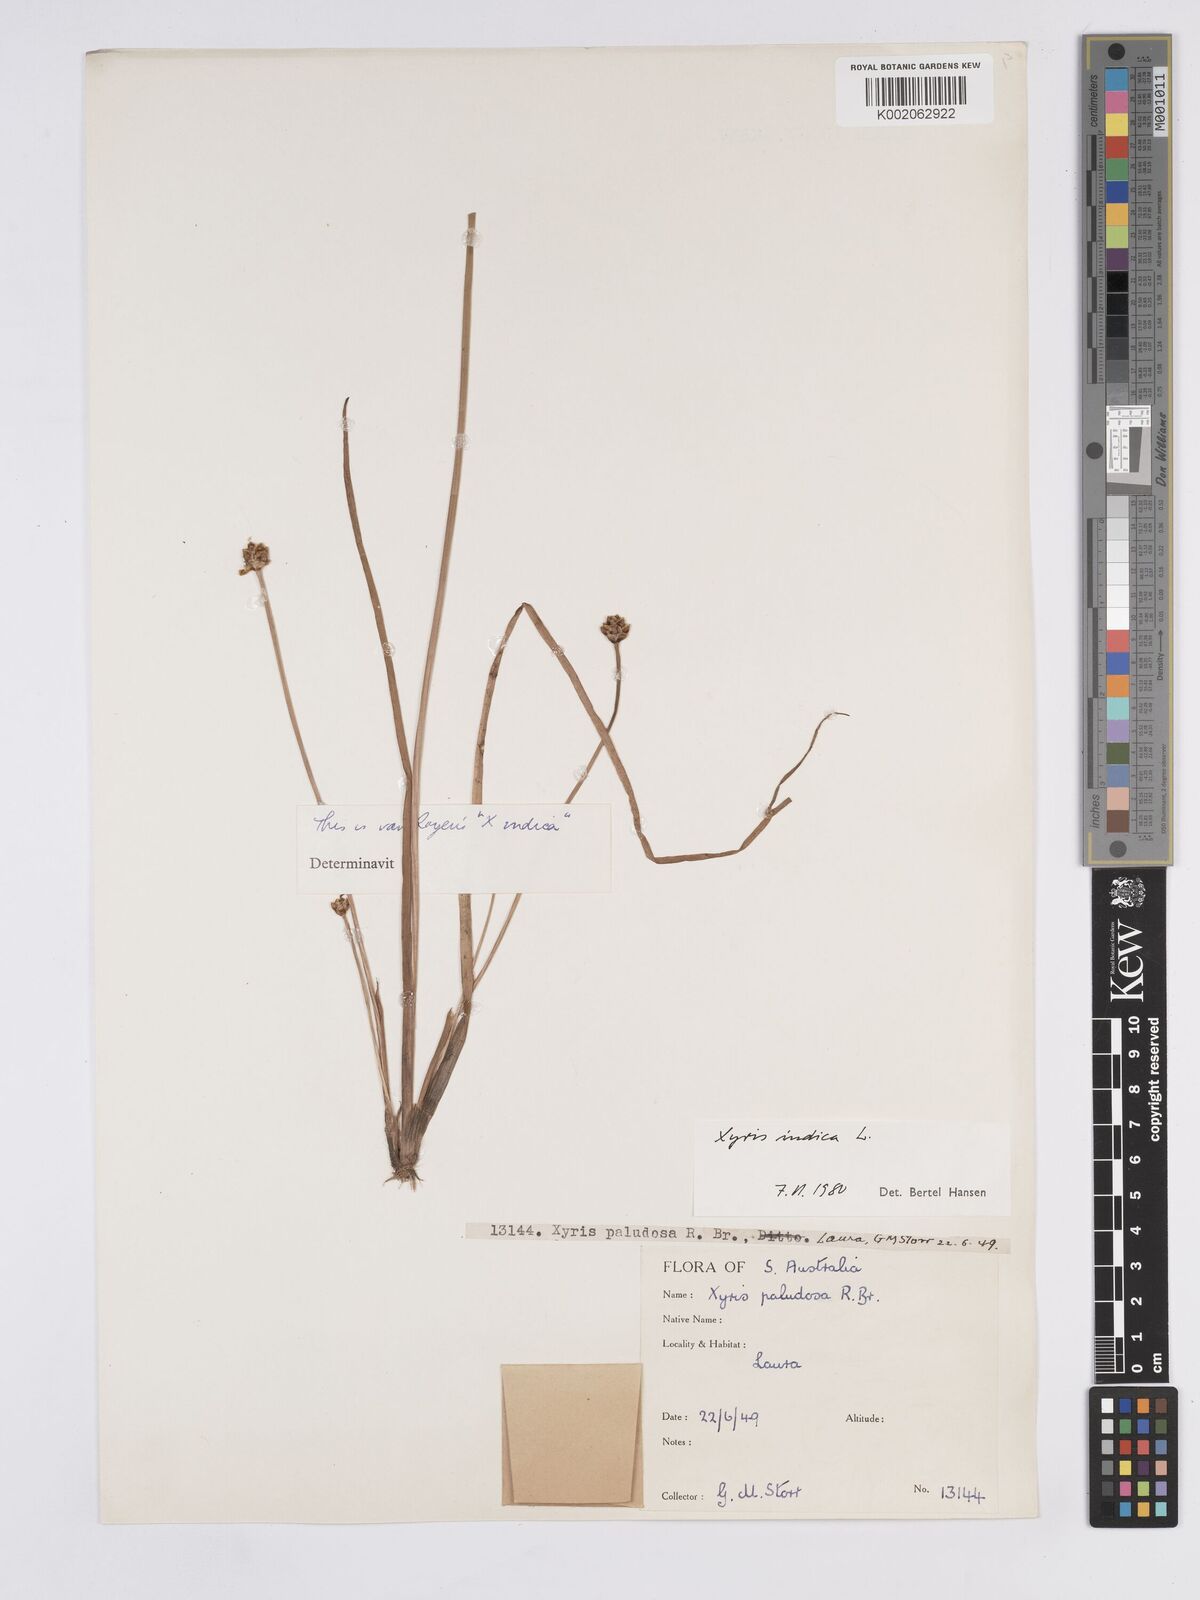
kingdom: Plantae
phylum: Tracheophyta
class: Liliopsida
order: Poales
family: Xyridaceae
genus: Xyris
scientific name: Xyris indica
